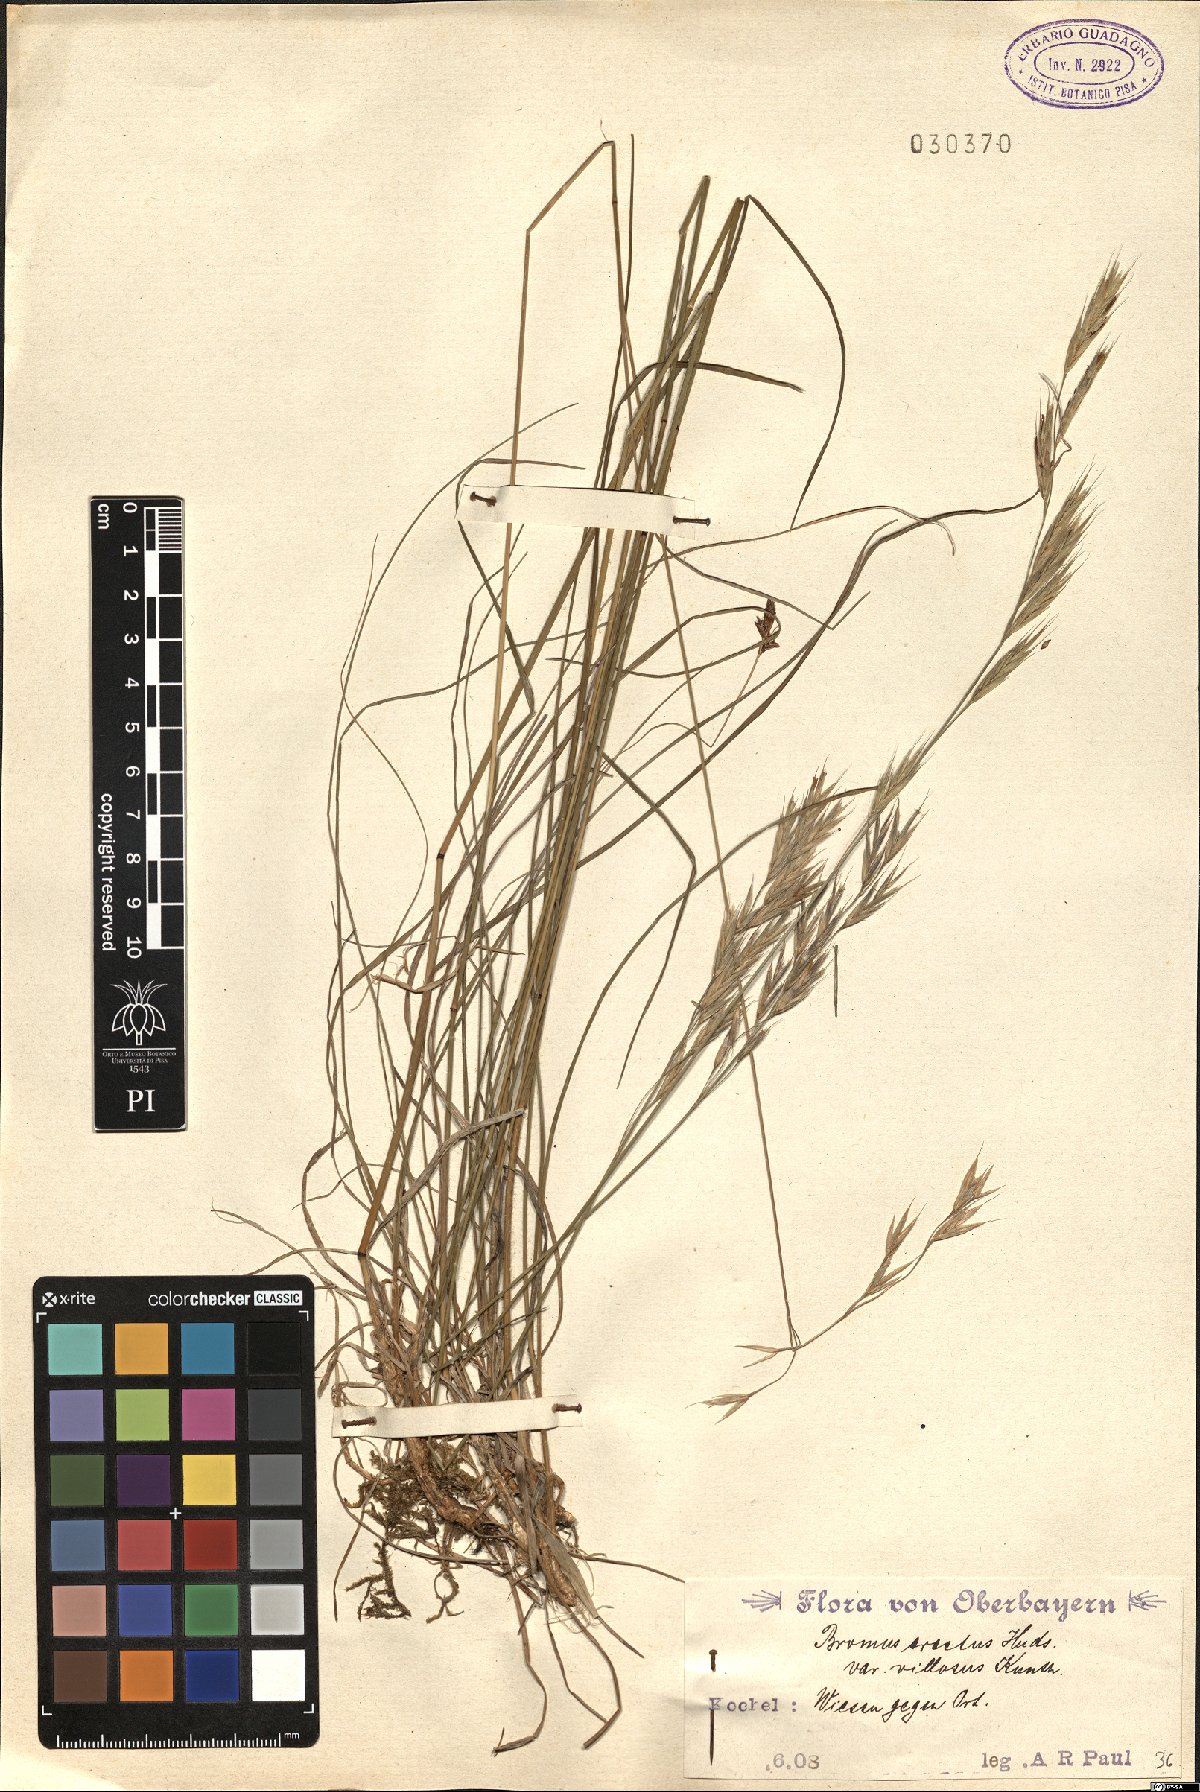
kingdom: Plantae
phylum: Tracheophyta
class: Liliopsida
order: Poales
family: Poaceae
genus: Bromus
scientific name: Bromus erectus
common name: Erect brome
